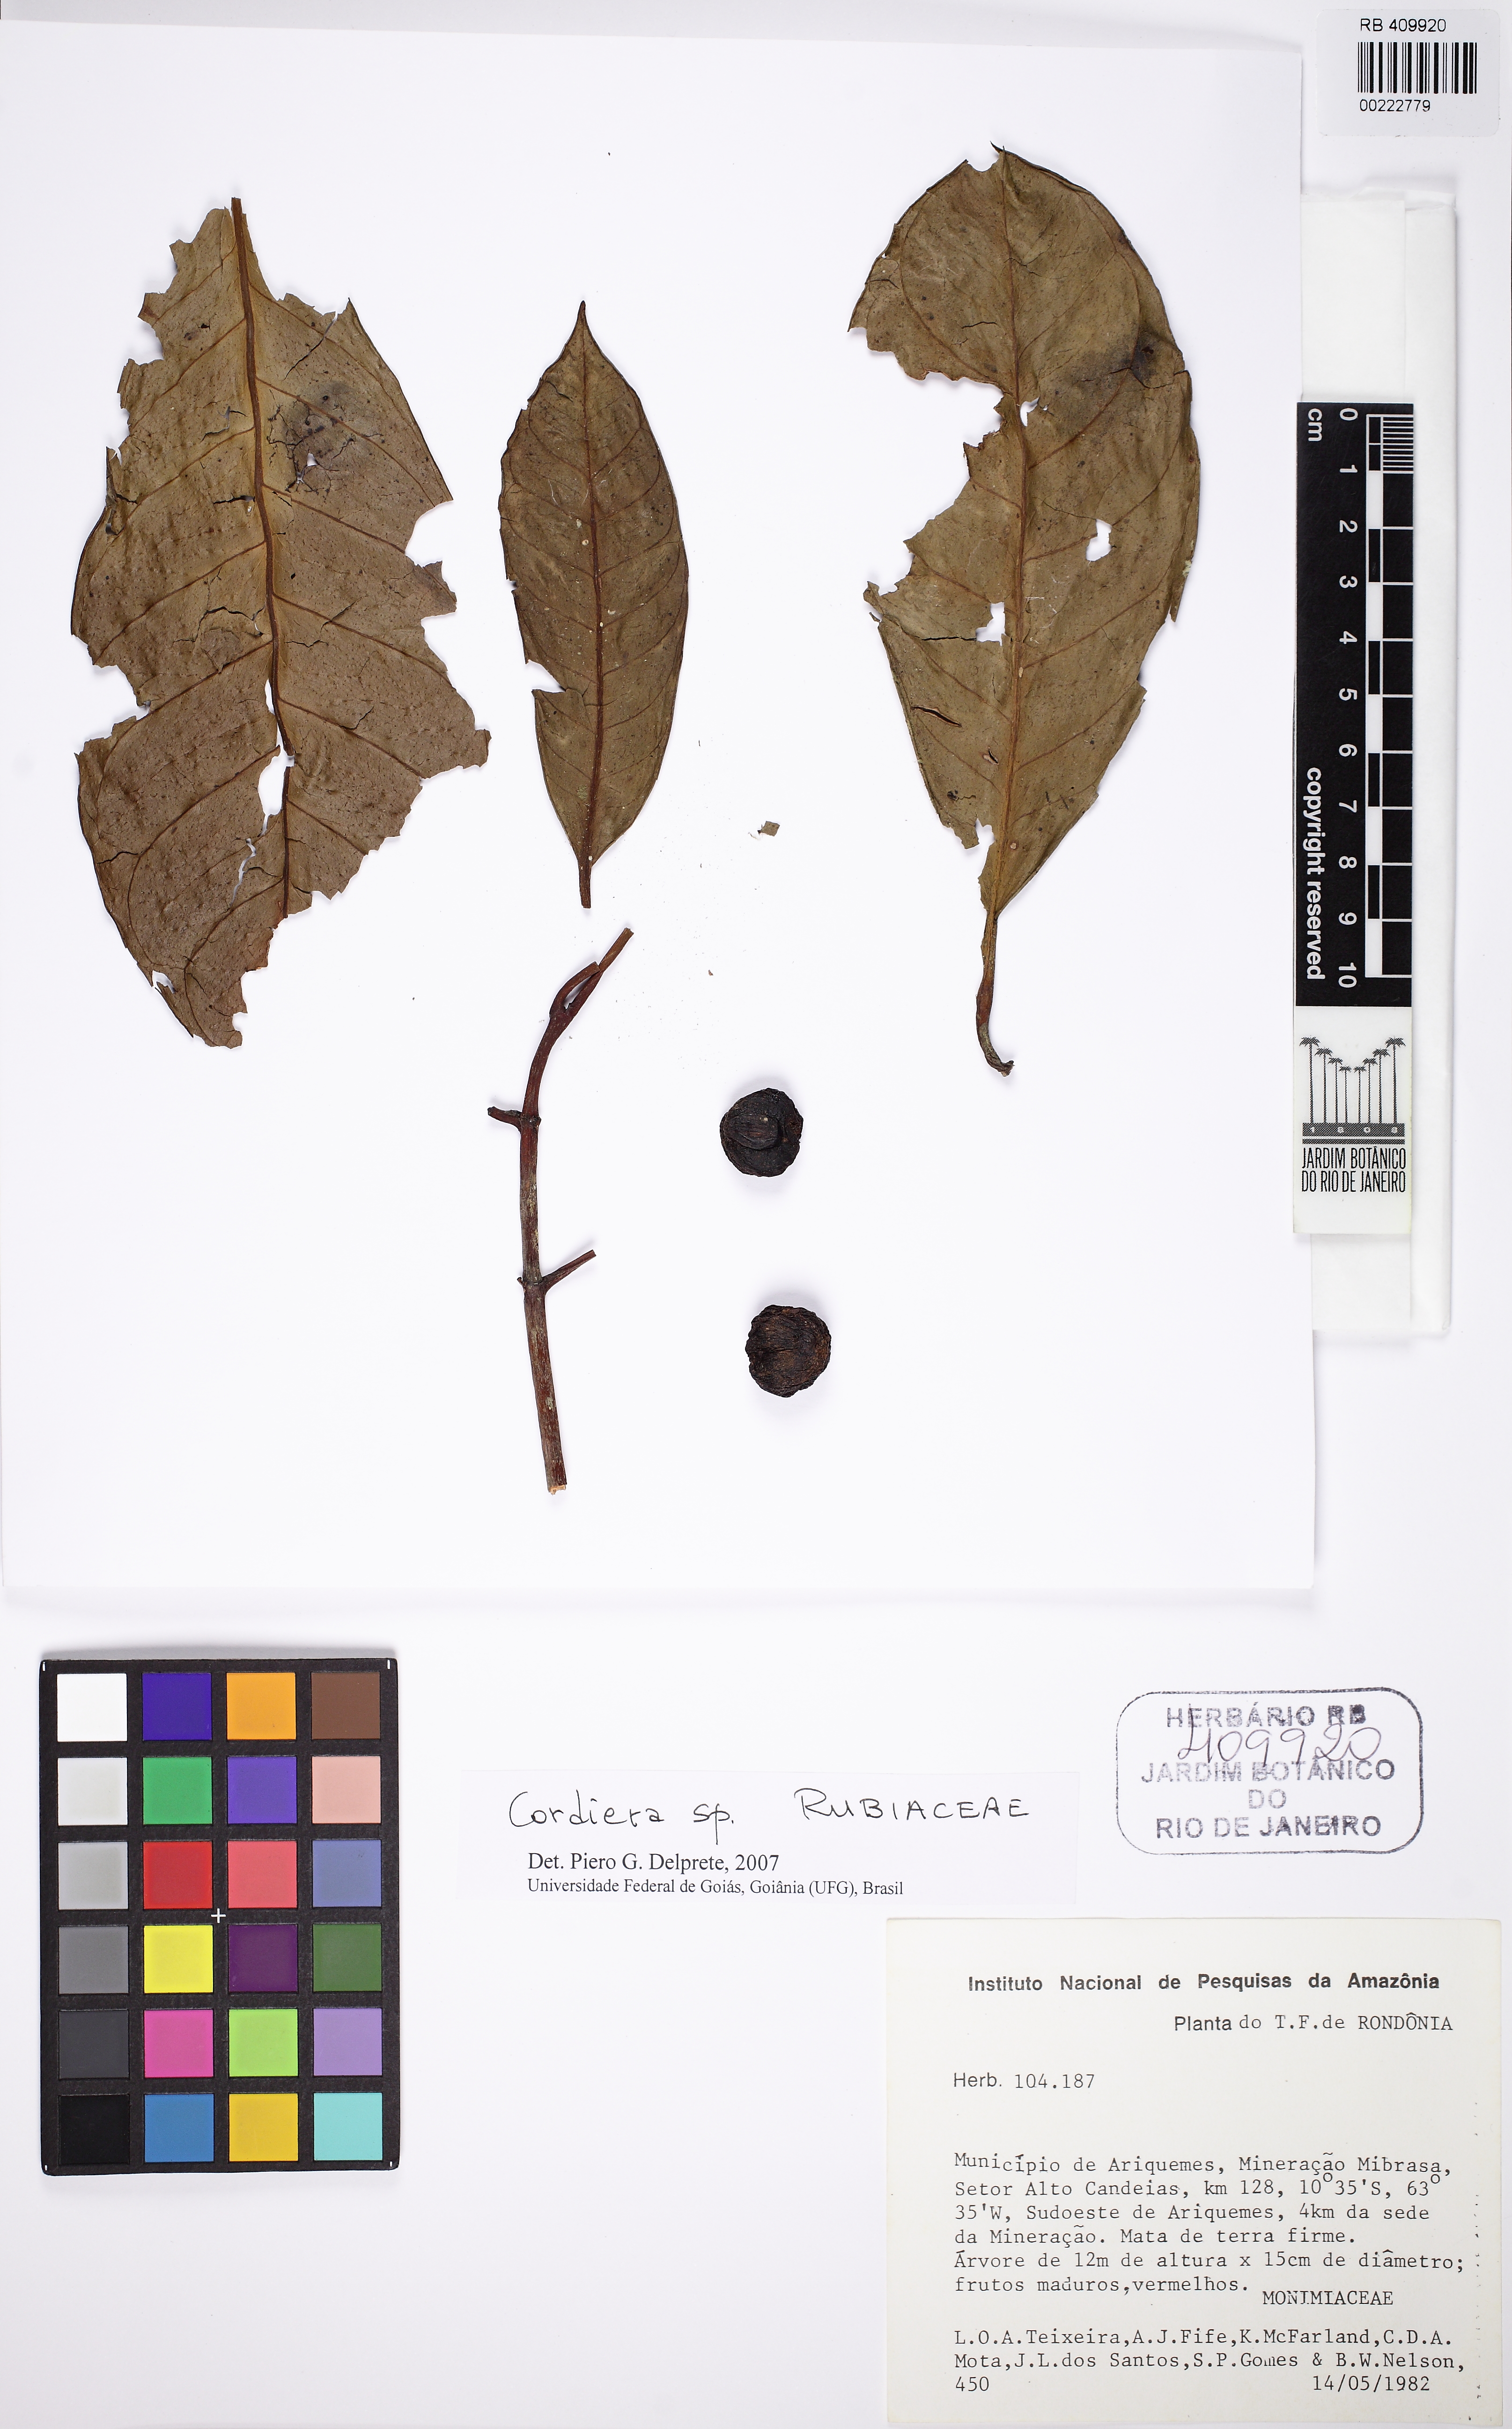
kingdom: Plantae
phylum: Tracheophyta
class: Magnoliopsida
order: Gentianales
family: Rubiaceae
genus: Cordiera
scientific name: Cordiera
